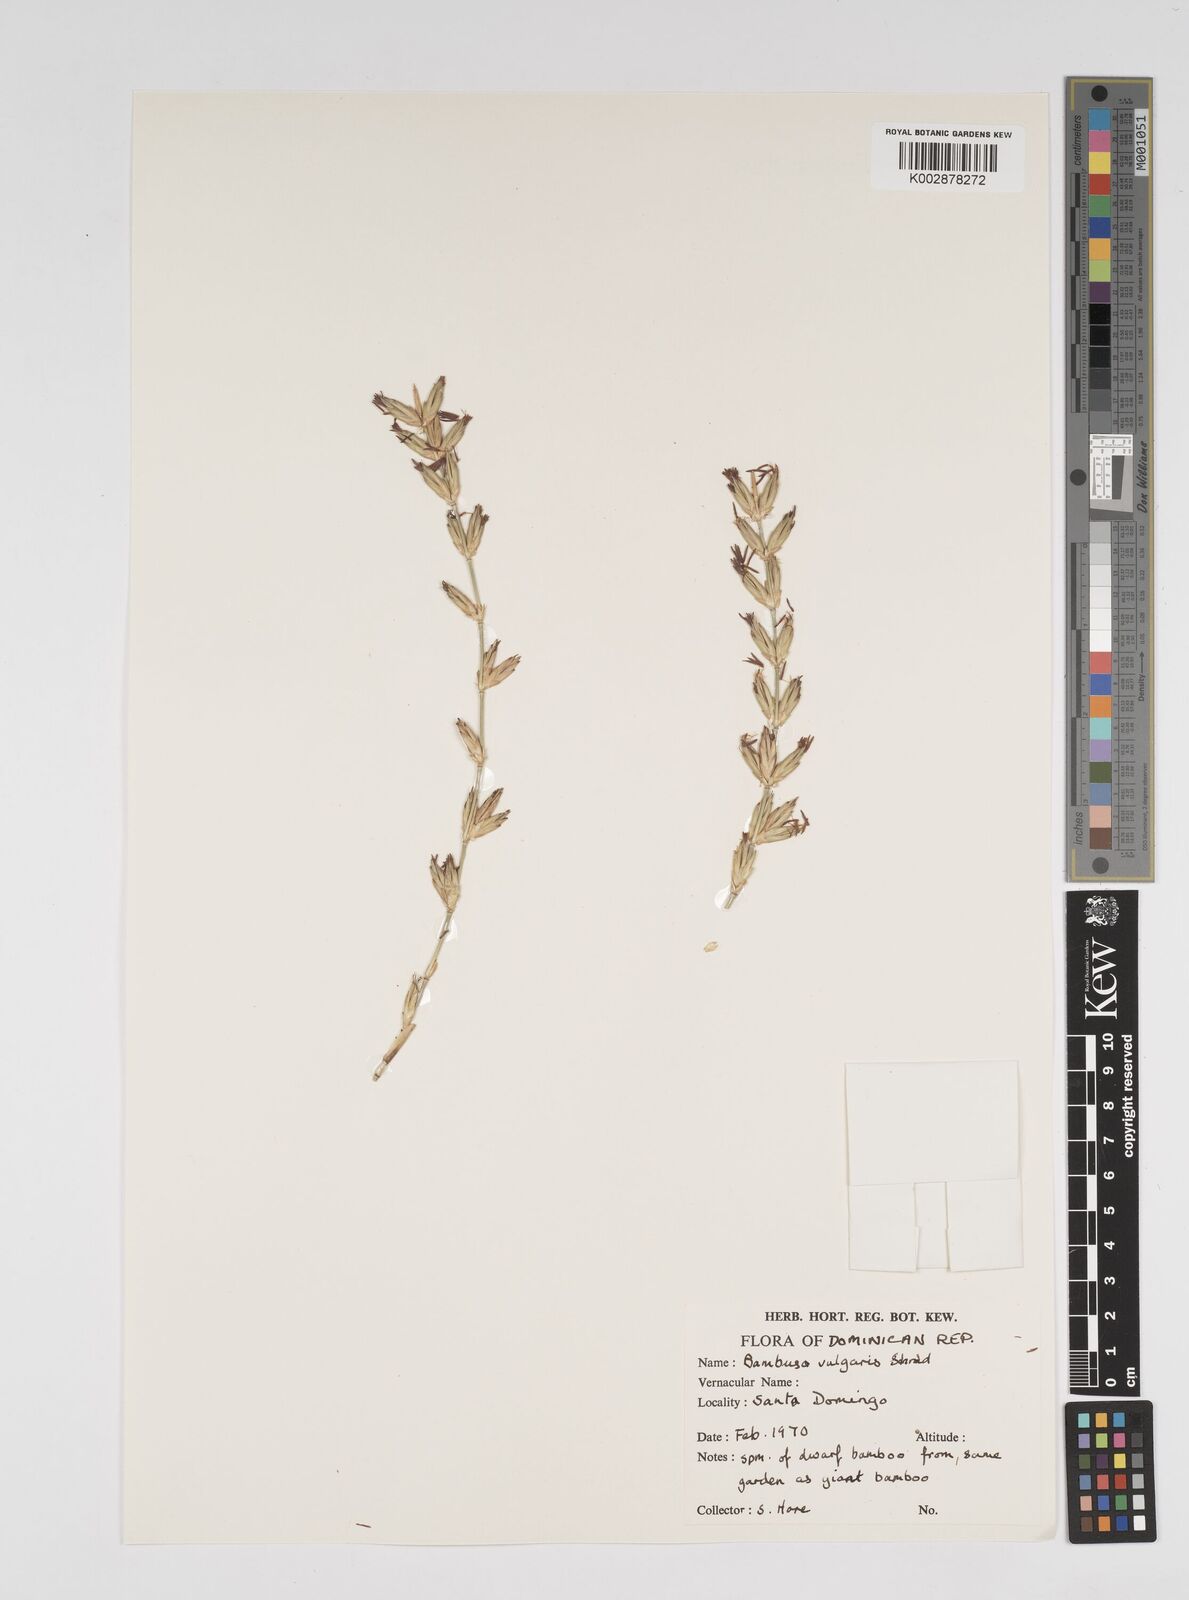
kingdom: Plantae
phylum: Tracheophyta
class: Liliopsida
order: Poales
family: Poaceae
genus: Bambusa
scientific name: Bambusa vulgaris
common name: Common bamboo
